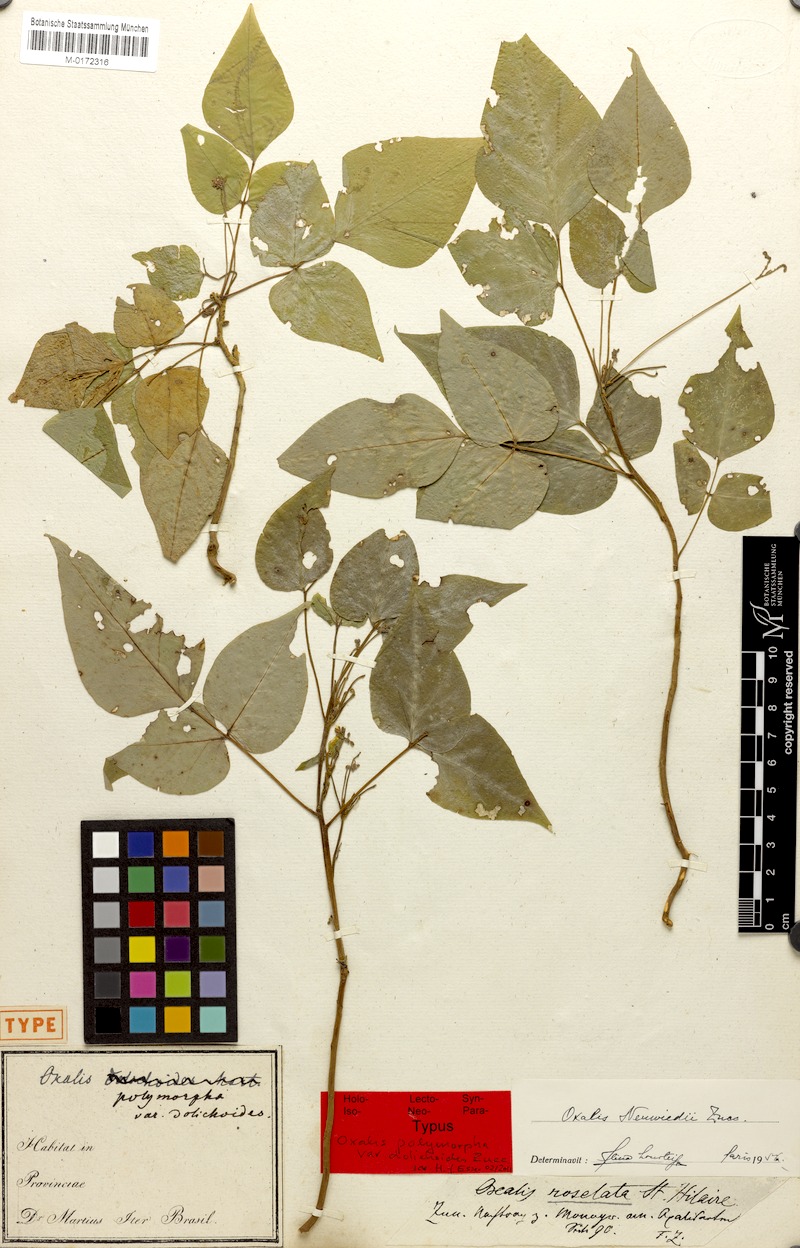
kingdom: Plantae
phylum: Tracheophyta
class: Magnoliopsida
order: Oxalidales
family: Oxalidaceae
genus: Oxalis
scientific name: Oxalis neuwiedii
